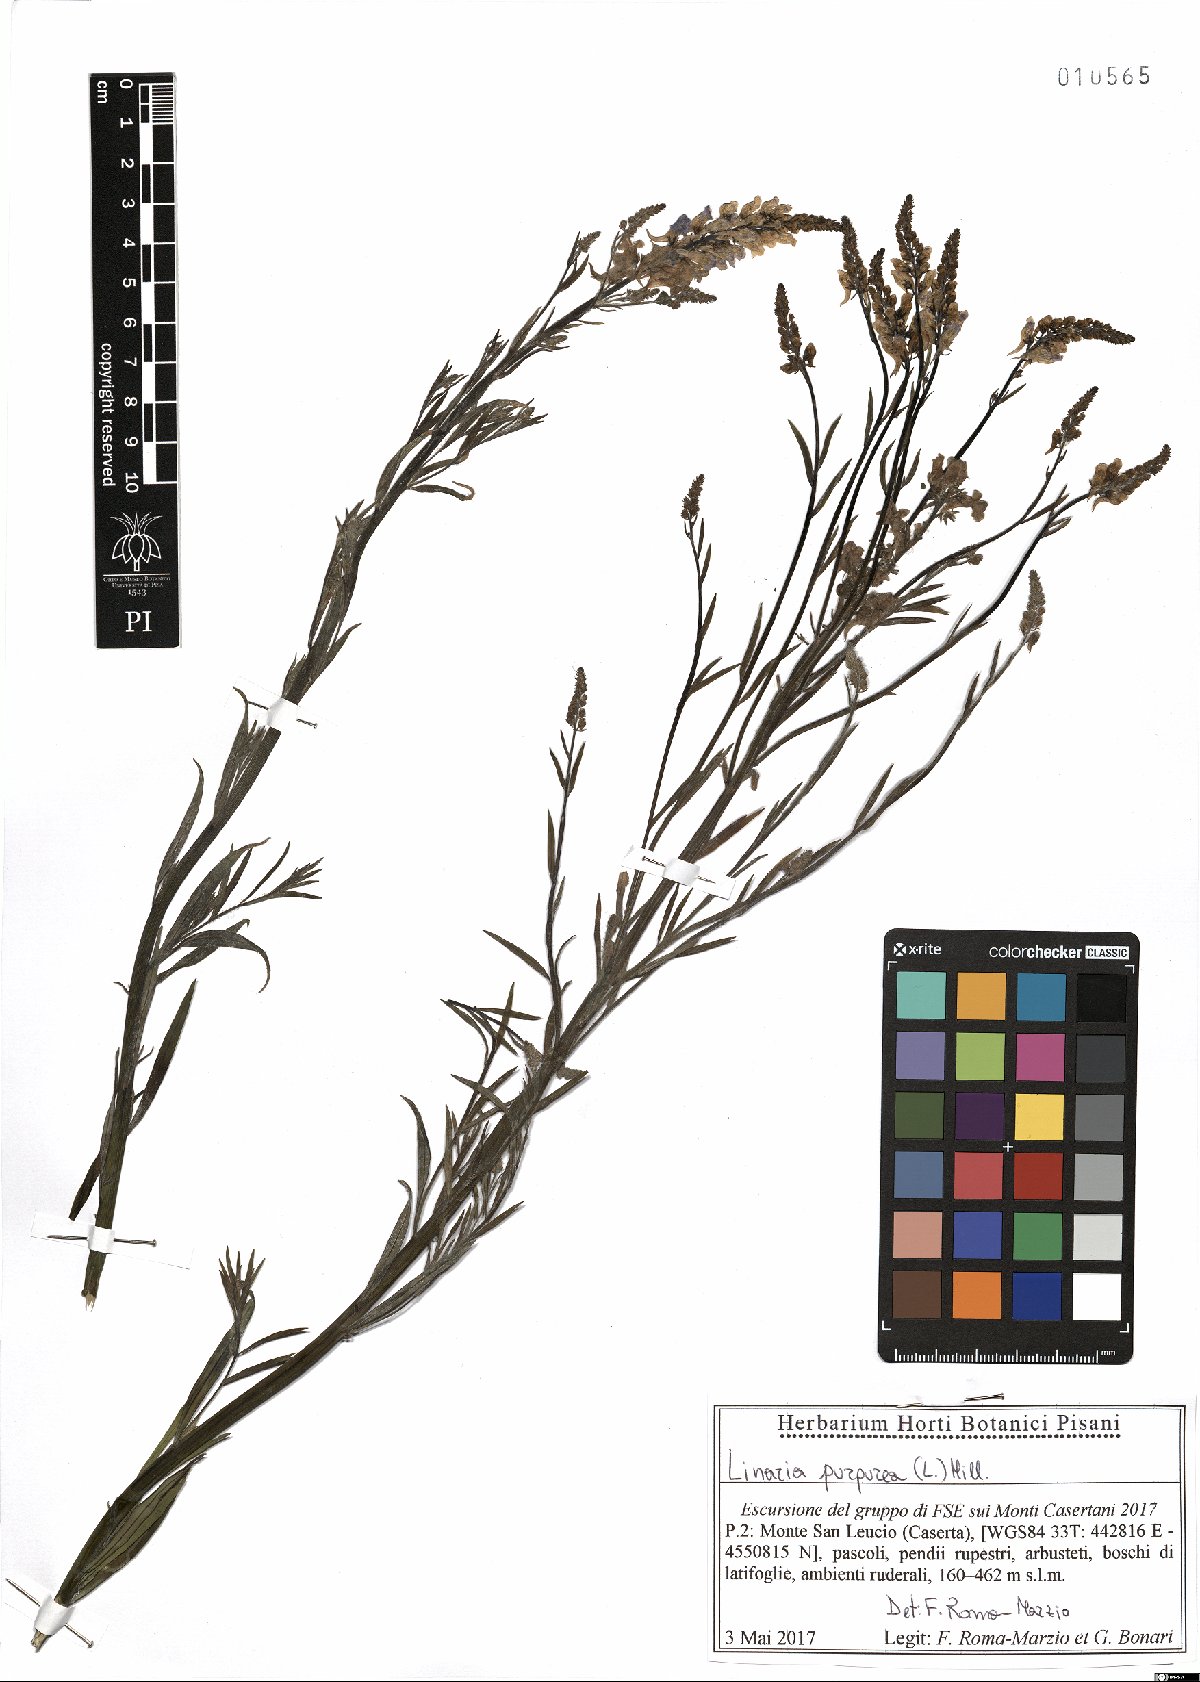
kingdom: Plantae
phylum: Tracheophyta
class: Magnoliopsida
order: Lamiales
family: Plantaginaceae
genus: Linaria
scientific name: Linaria purpurea
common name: Purple toadflax
